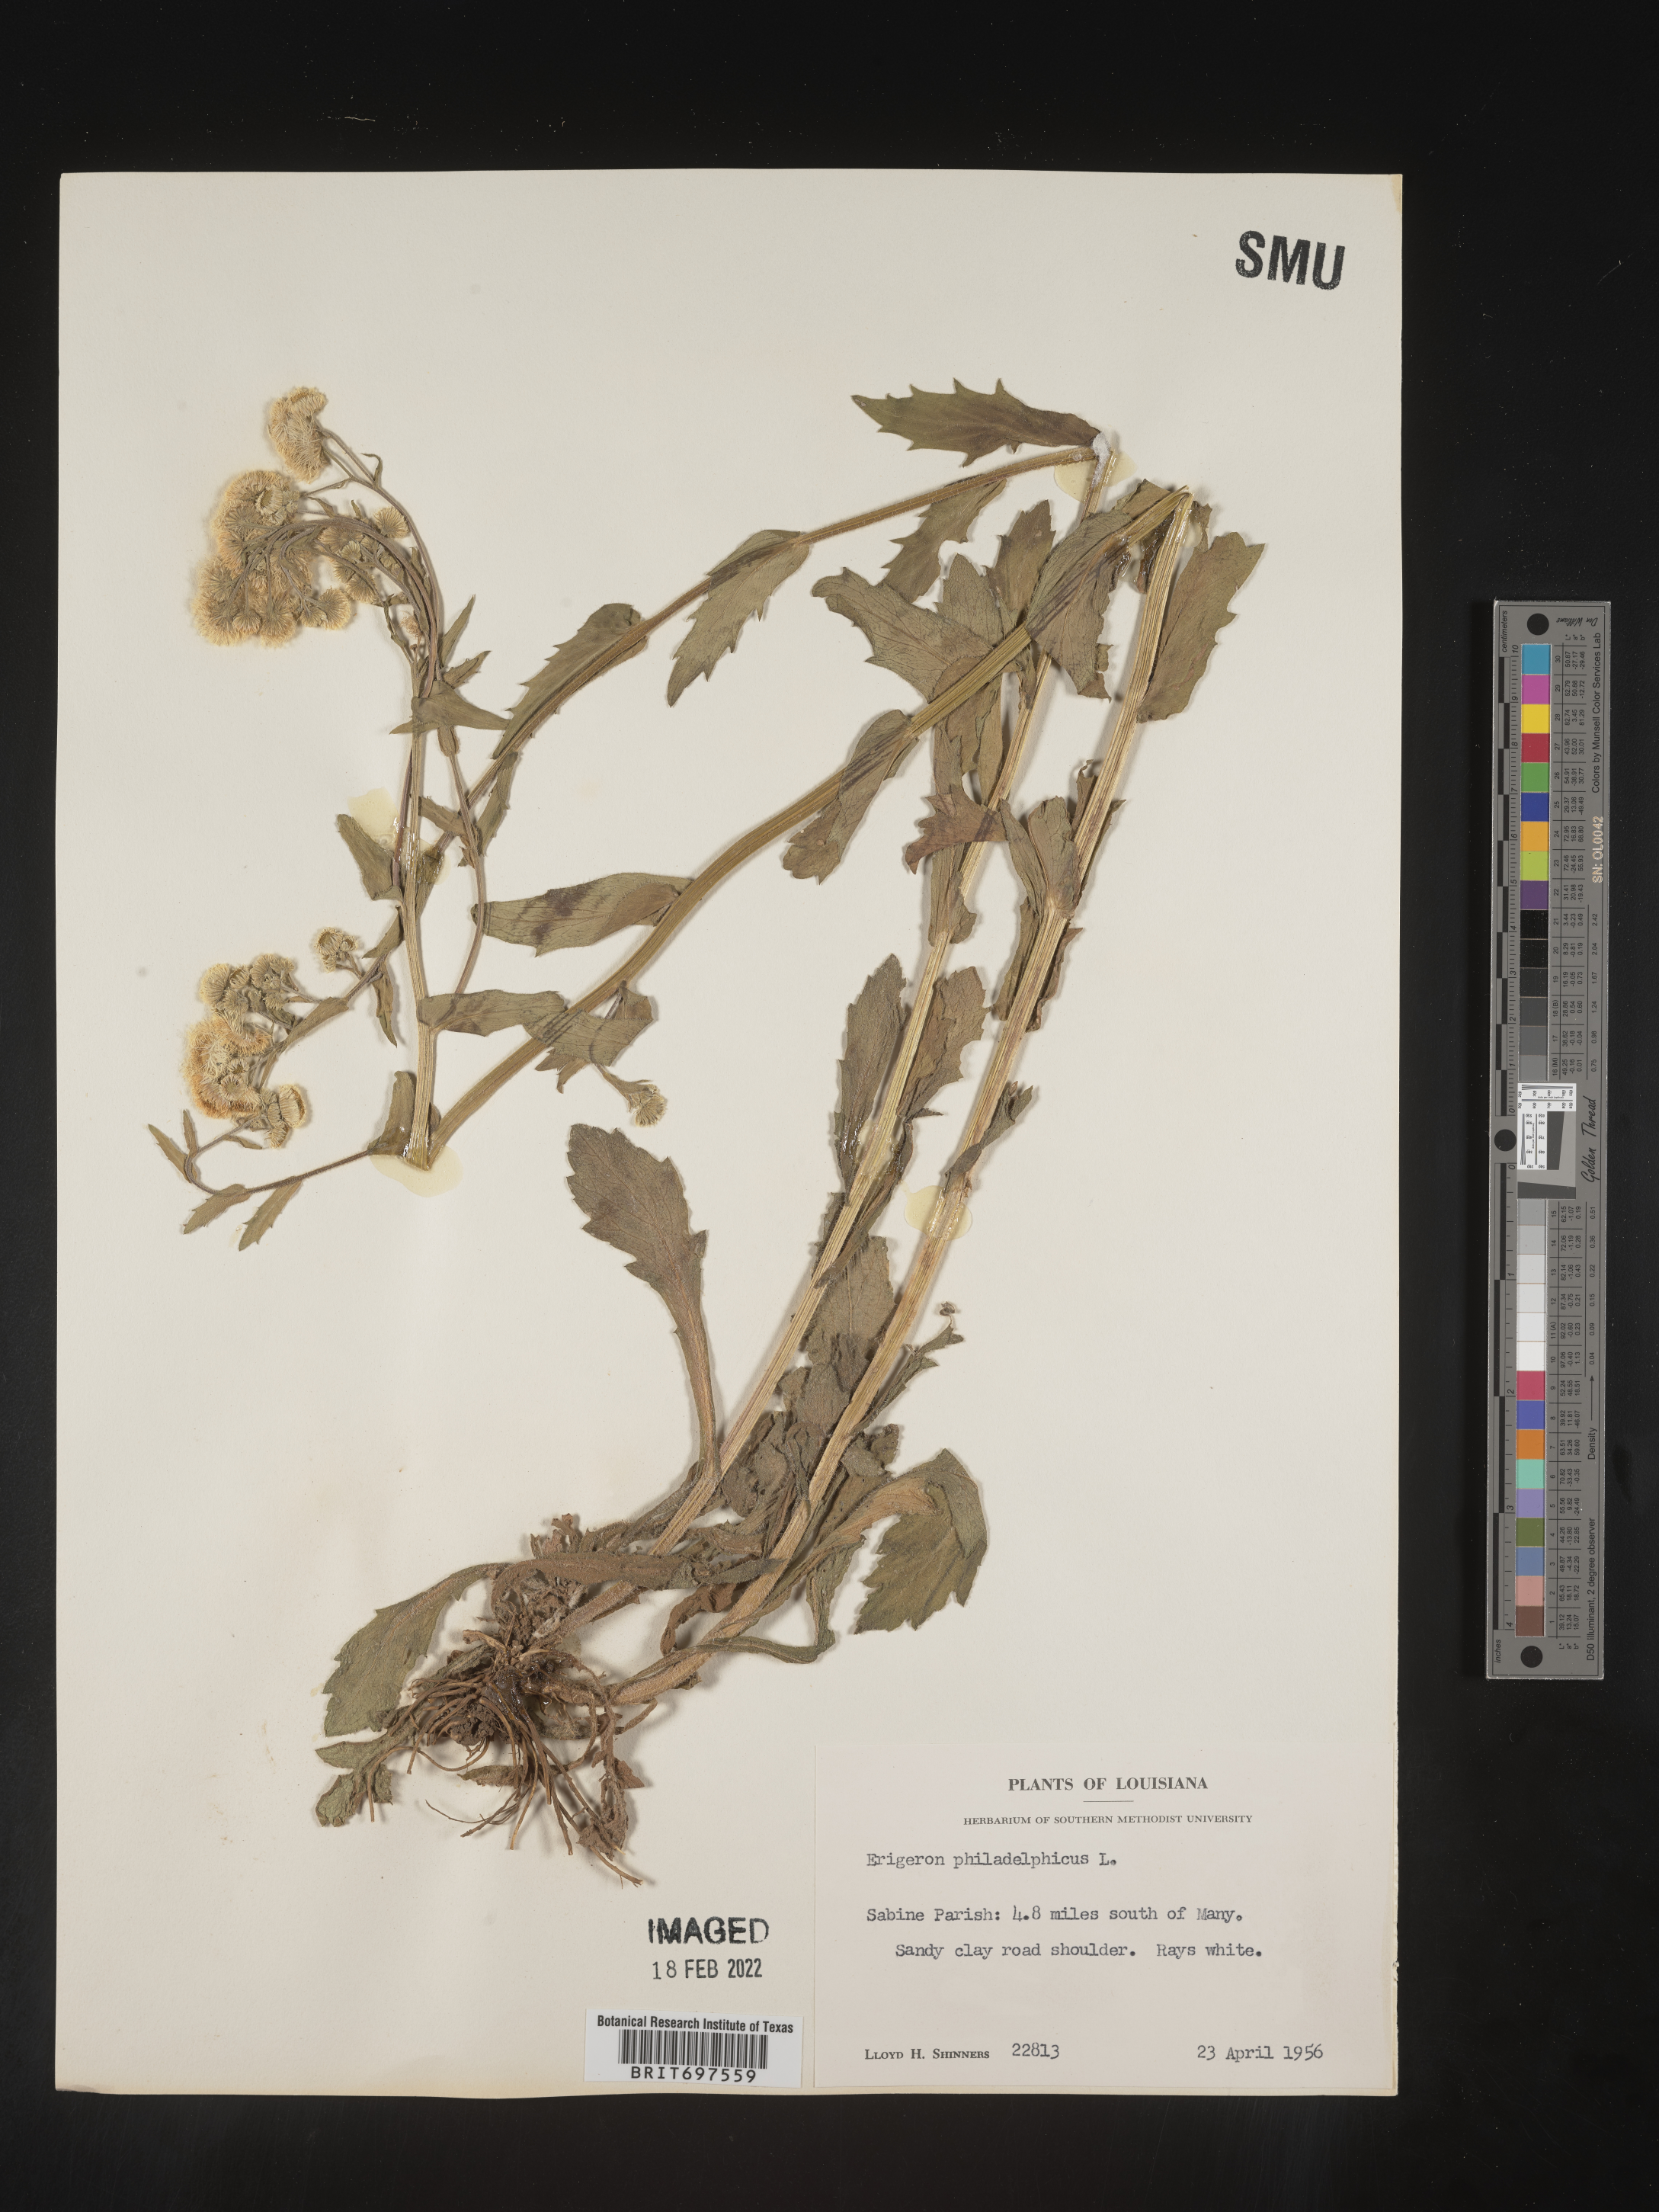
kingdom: Plantae
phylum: Tracheophyta
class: Magnoliopsida
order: Asterales
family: Asteraceae
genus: Erigeron
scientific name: Erigeron philadelphicus
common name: Robin's-plantain
